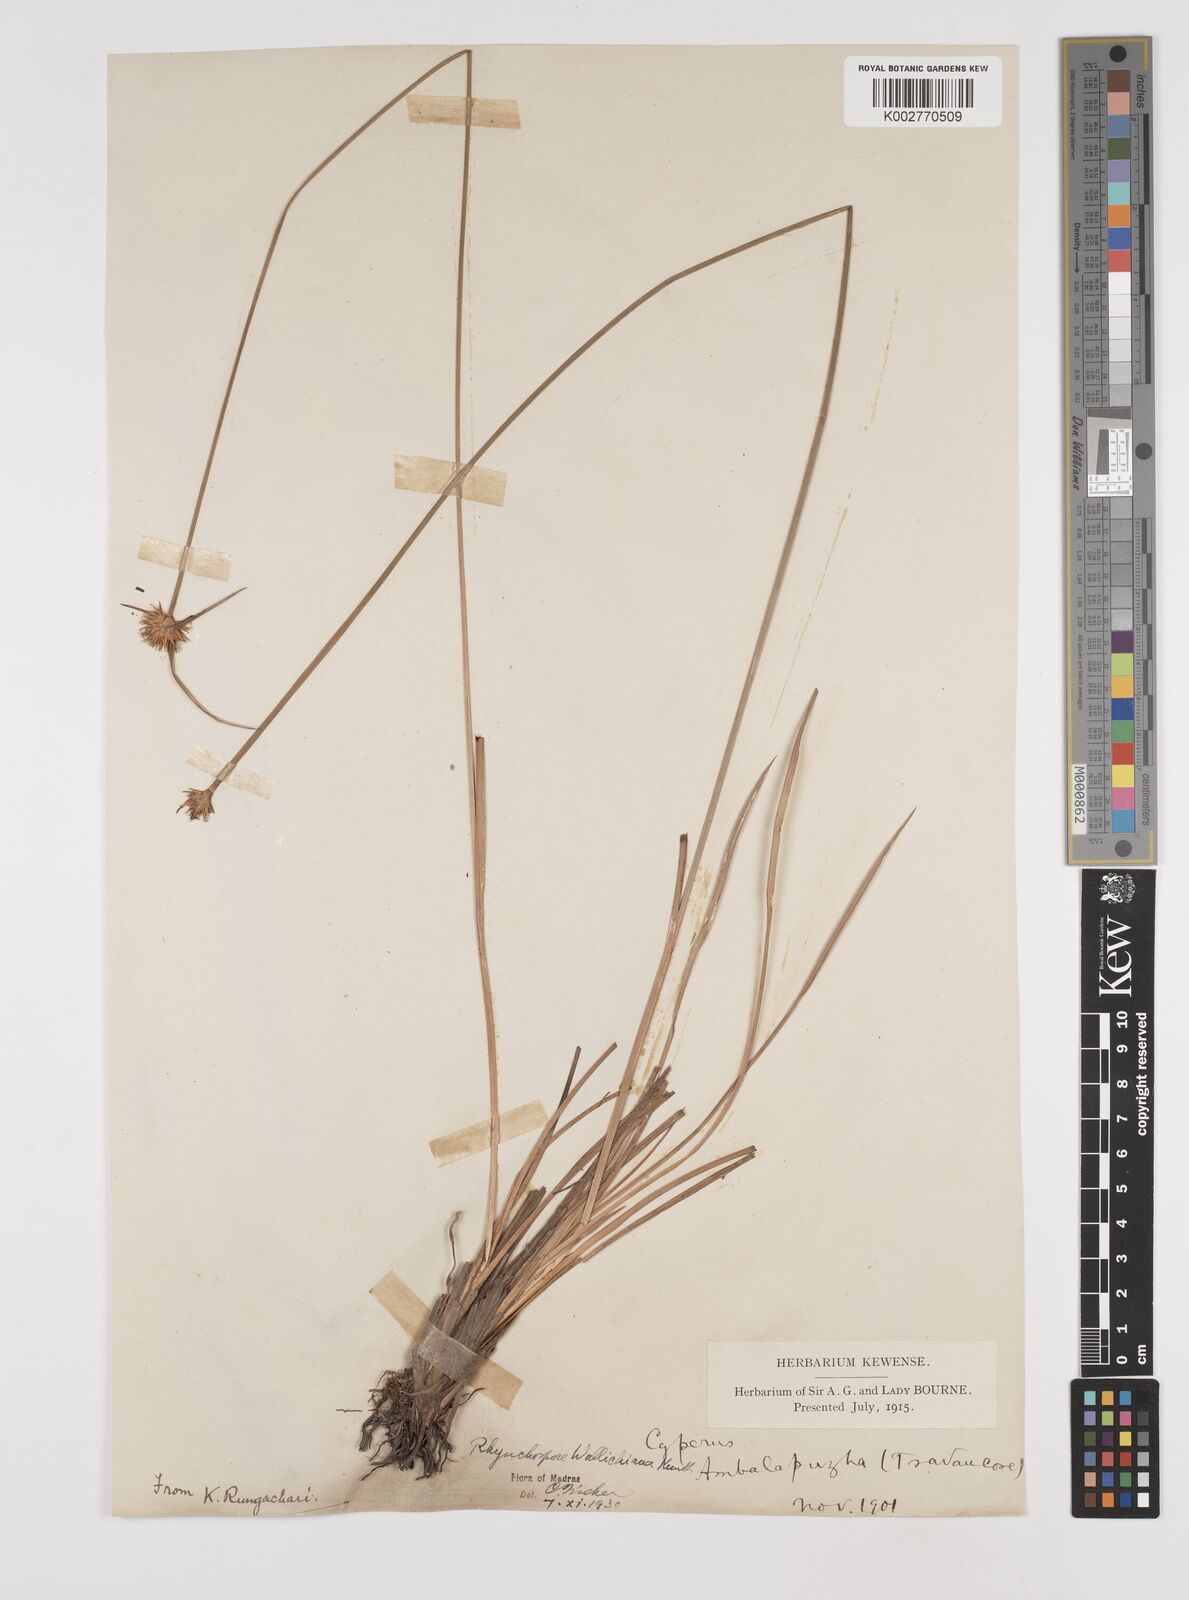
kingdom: Plantae
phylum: Tracheophyta
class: Liliopsida
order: Poales
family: Cyperaceae
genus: Rhynchospora
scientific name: Rhynchospora rubra
